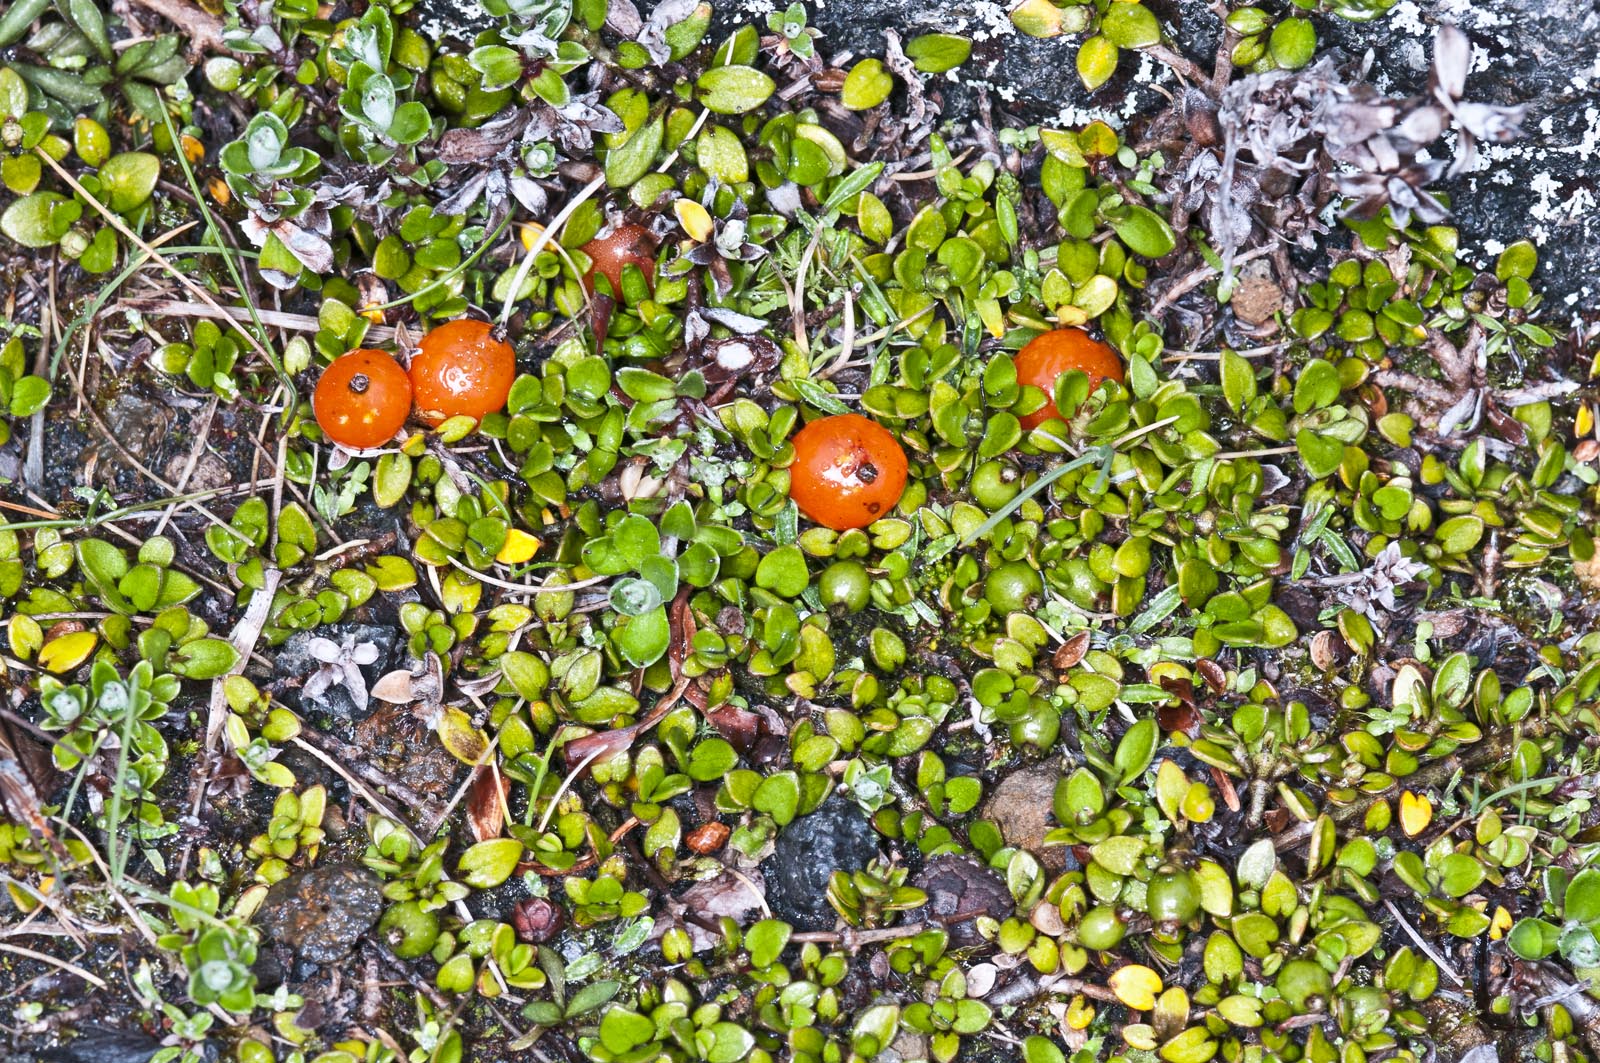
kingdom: Plantae
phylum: Tracheophyta
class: Magnoliopsida
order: Gentianales
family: Rubiaceae
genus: Coprosma
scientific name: Coprosma perpusilla
